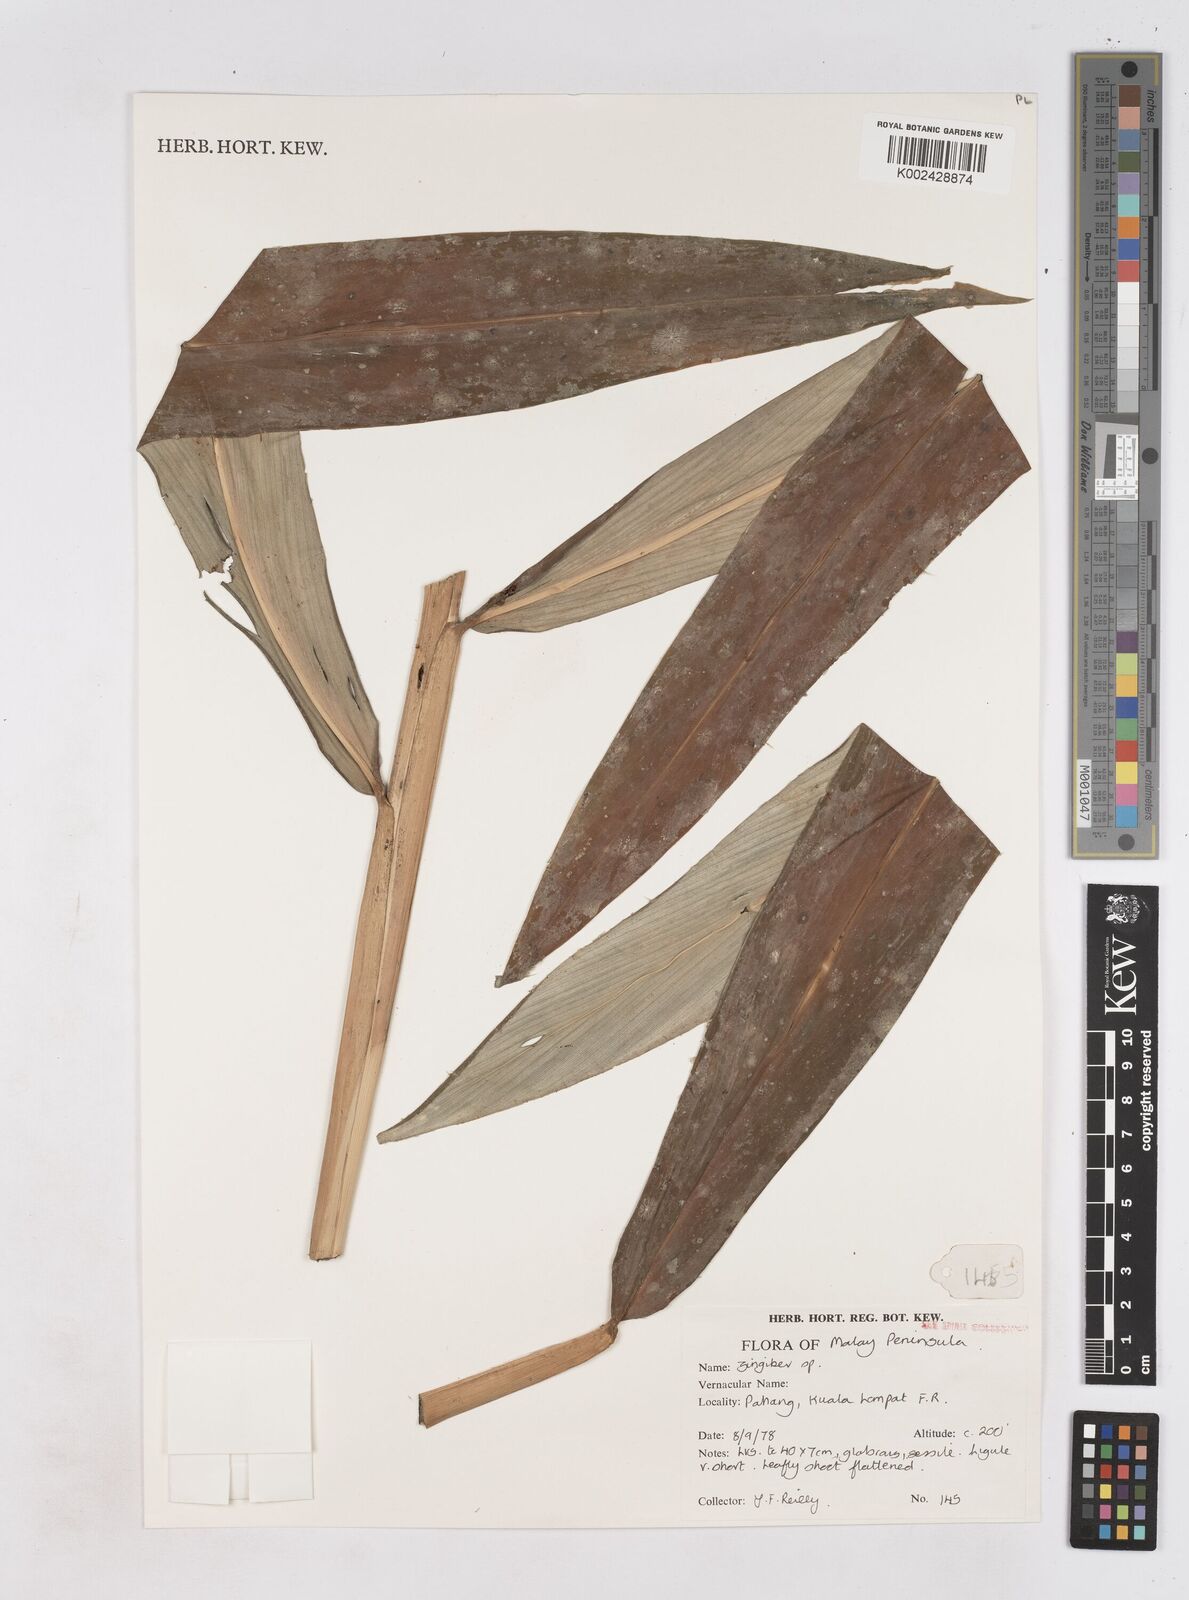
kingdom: Plantae
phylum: Tracheophyta
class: Liliopsida
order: Zingiberales
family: Zingiberaceae
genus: Zingiber
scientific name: Zingiber
